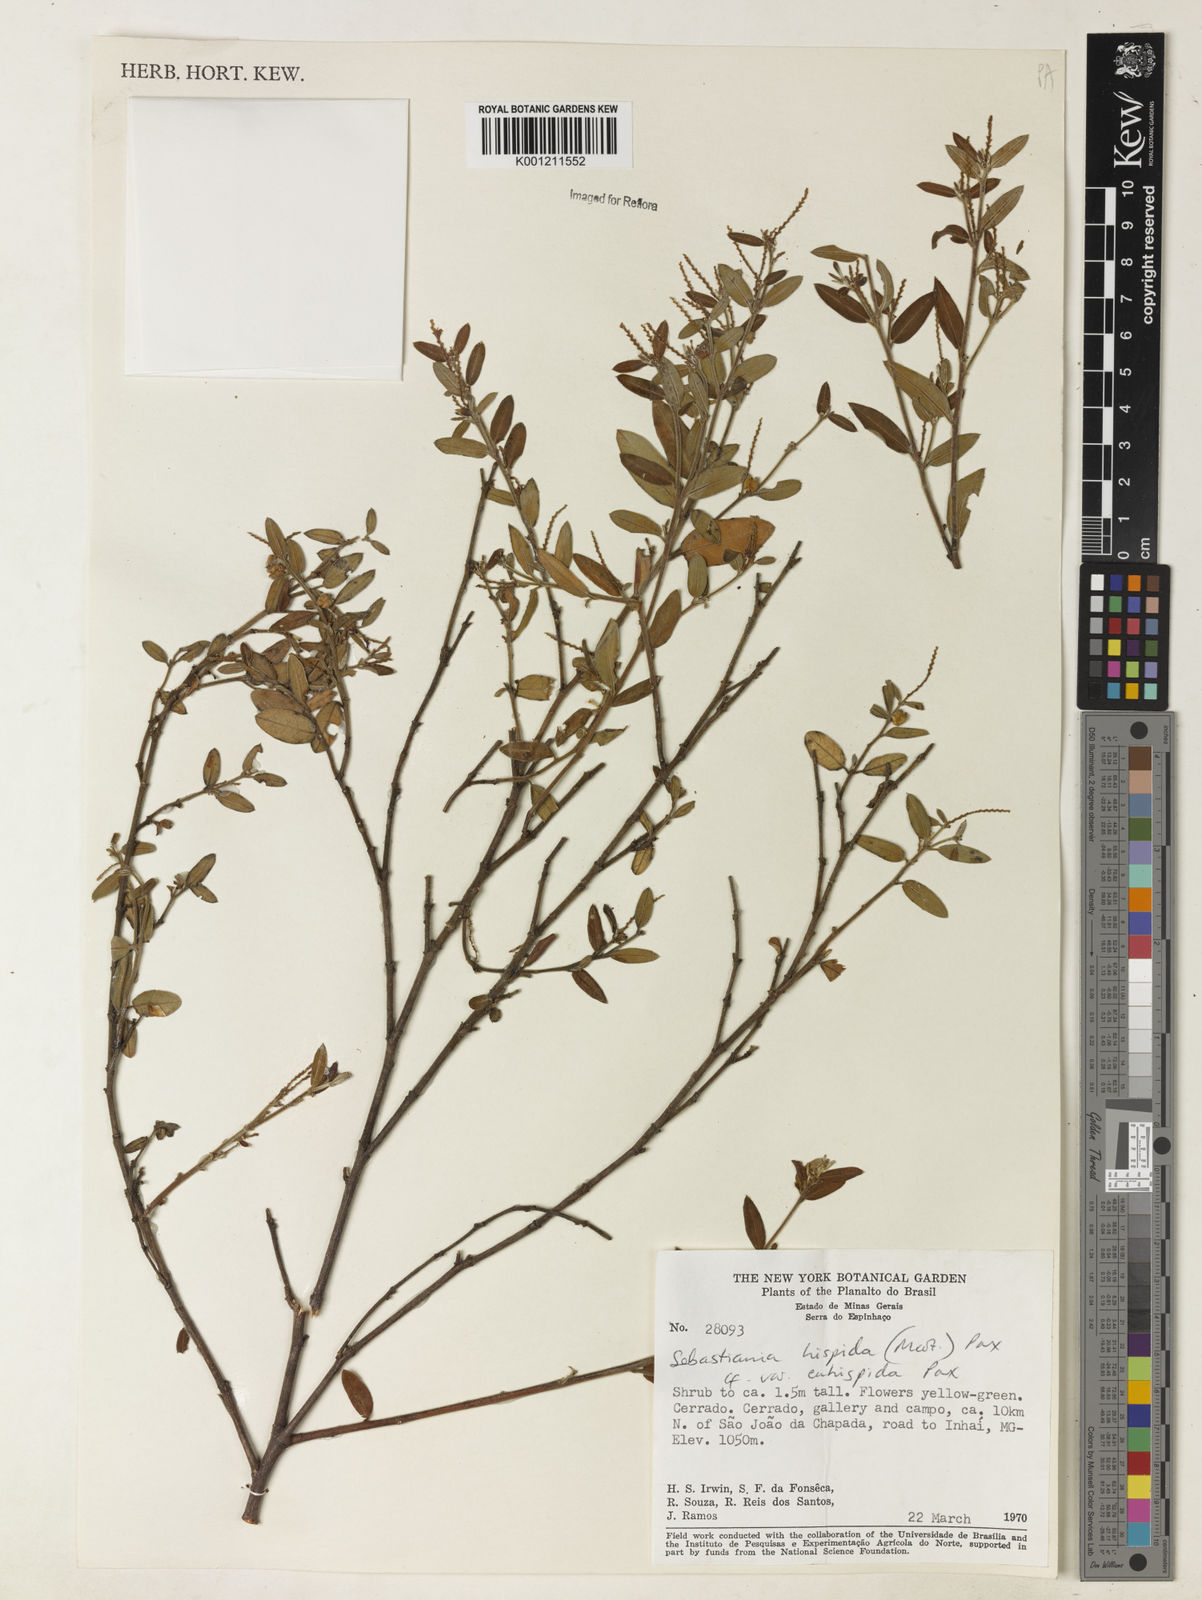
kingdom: Plantae
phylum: Tracheophyta
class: Magnoliopsida
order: Malpighiales
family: Euphorbiaceae
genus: Microstachys
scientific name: Microstachys hispida
